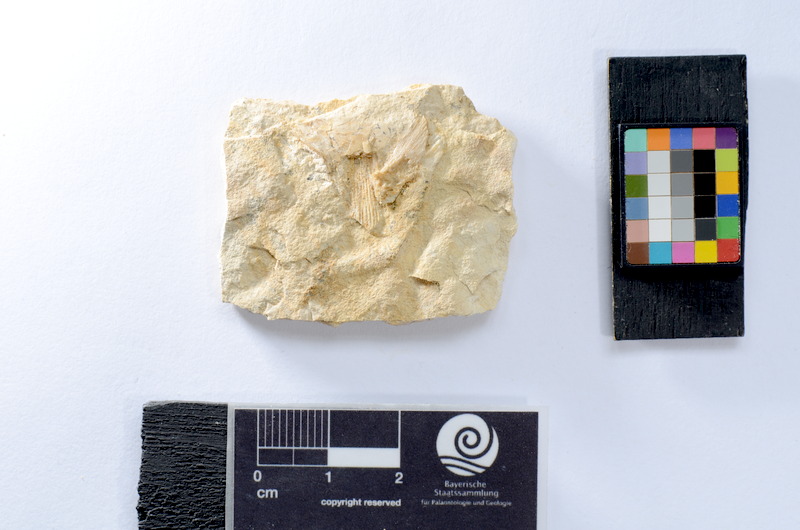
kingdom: Animalia
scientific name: Animalia
